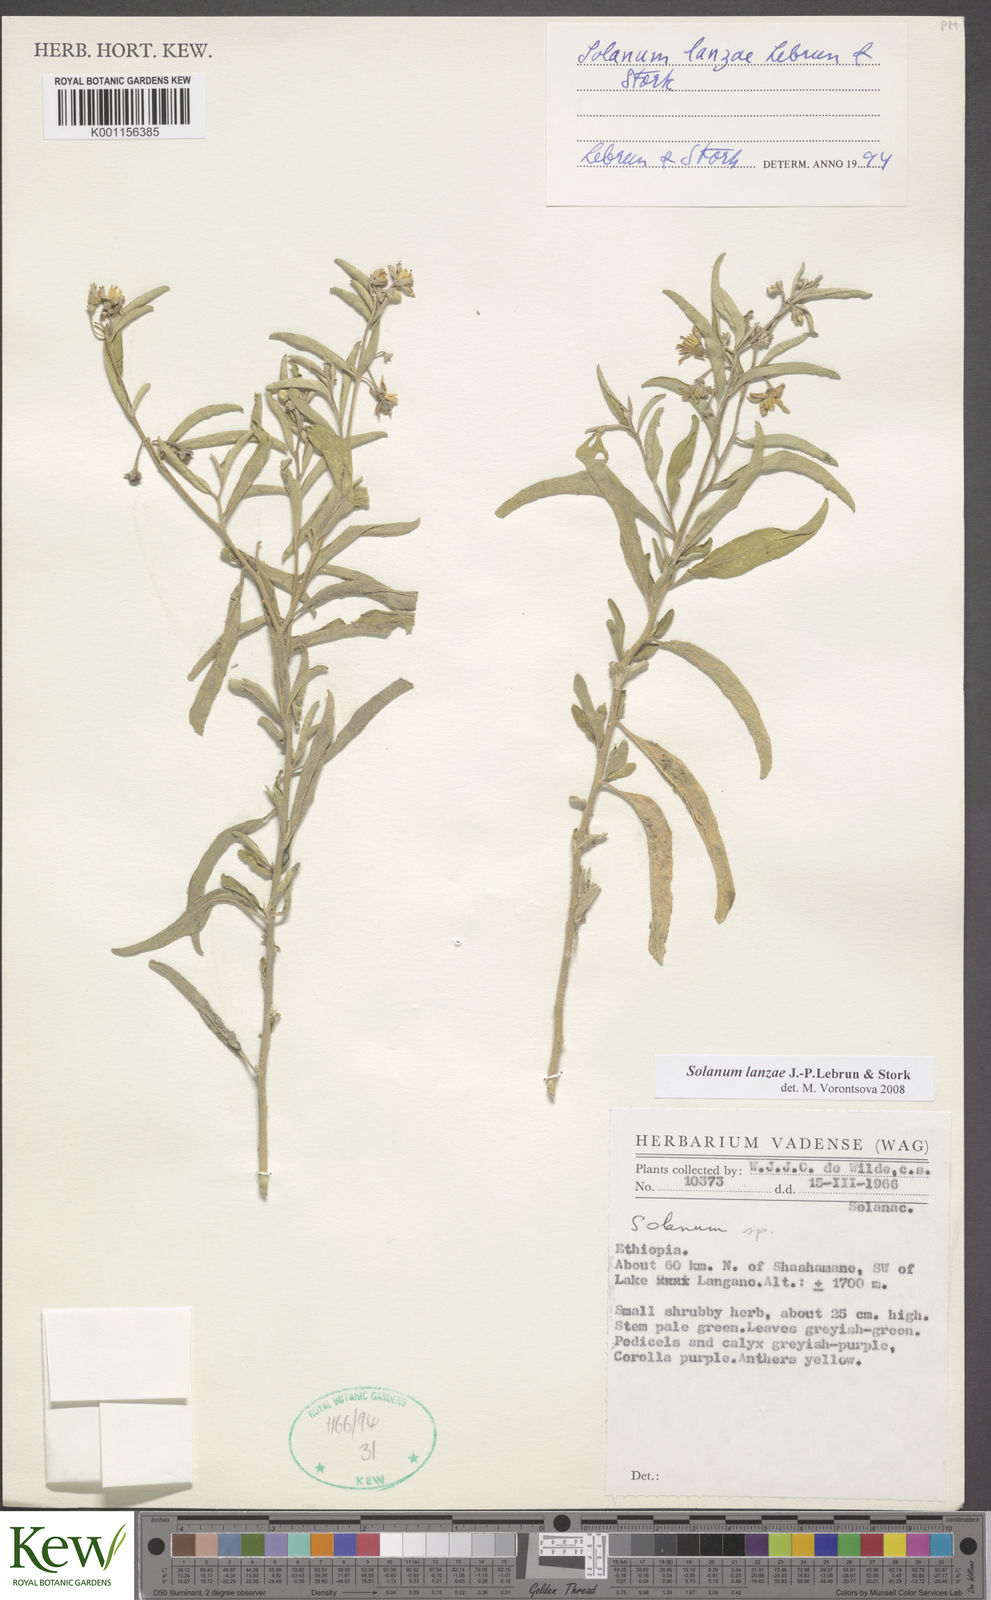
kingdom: Plantae
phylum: Tracheophyta
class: Magnoliopsida
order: Solanales
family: Solanaceae
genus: Solanum
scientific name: Solanum lanzae
